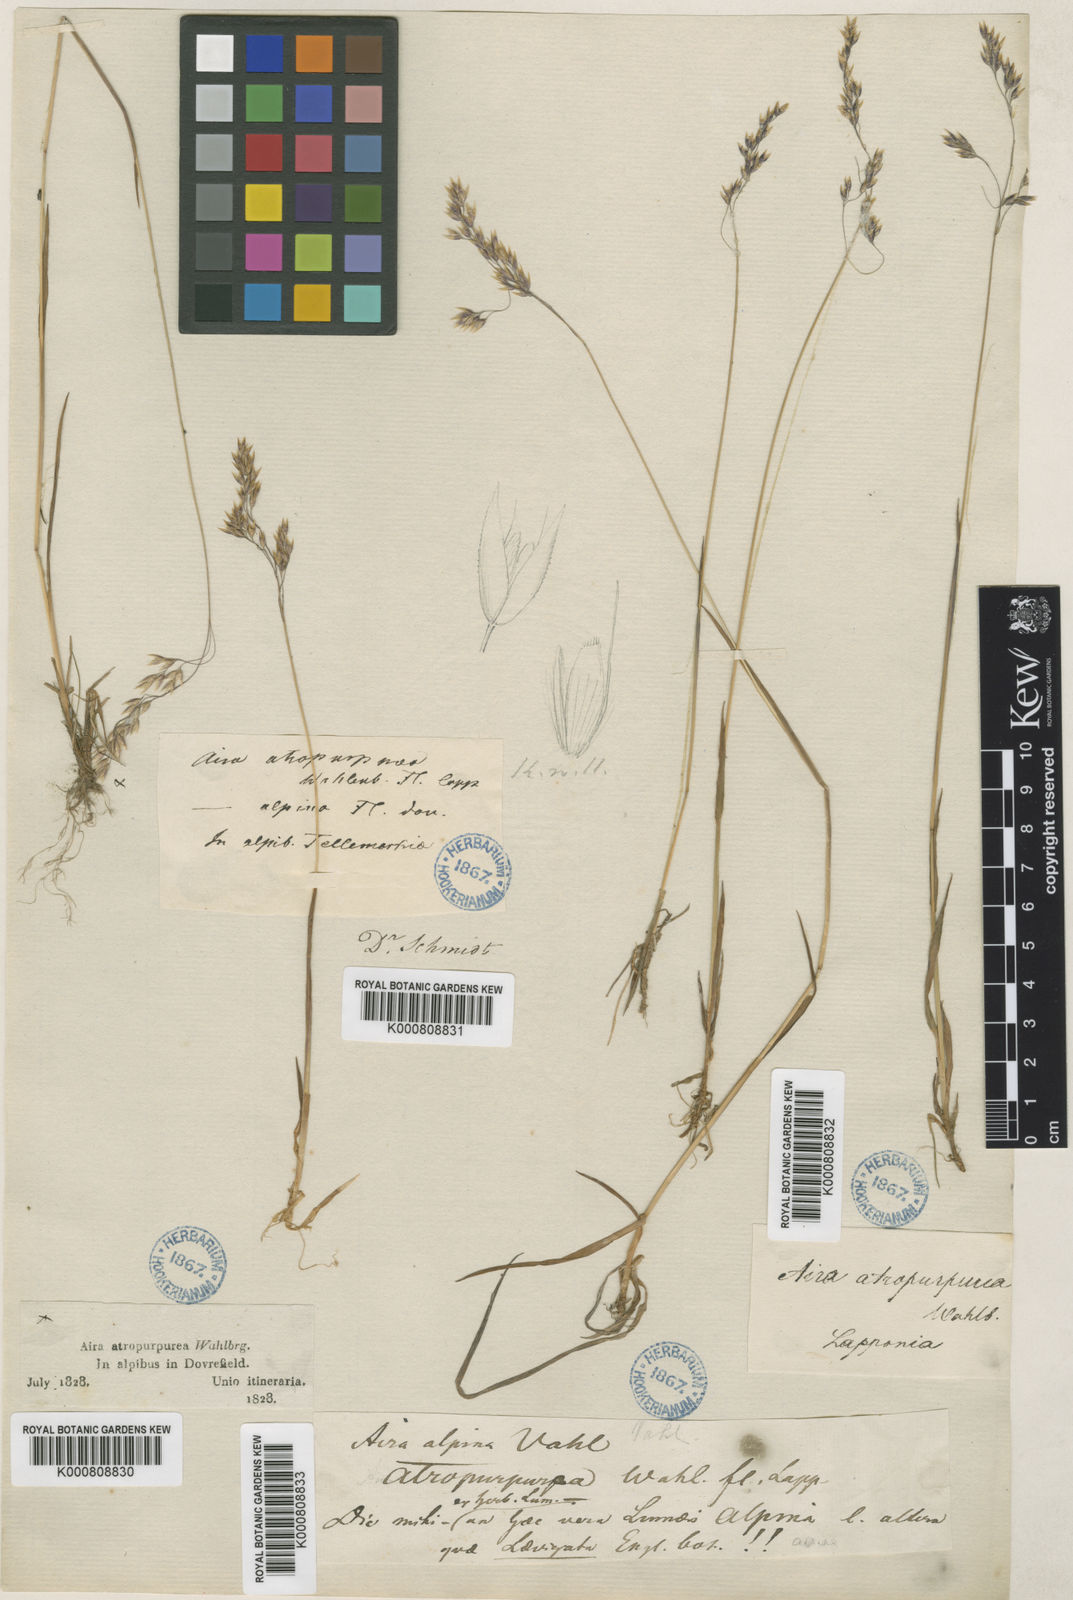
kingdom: Plantae
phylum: Tracheophyta
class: Liliopsida
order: Poales
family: Poaceae
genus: Vahlodea
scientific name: Vahlodea atropurpurea
